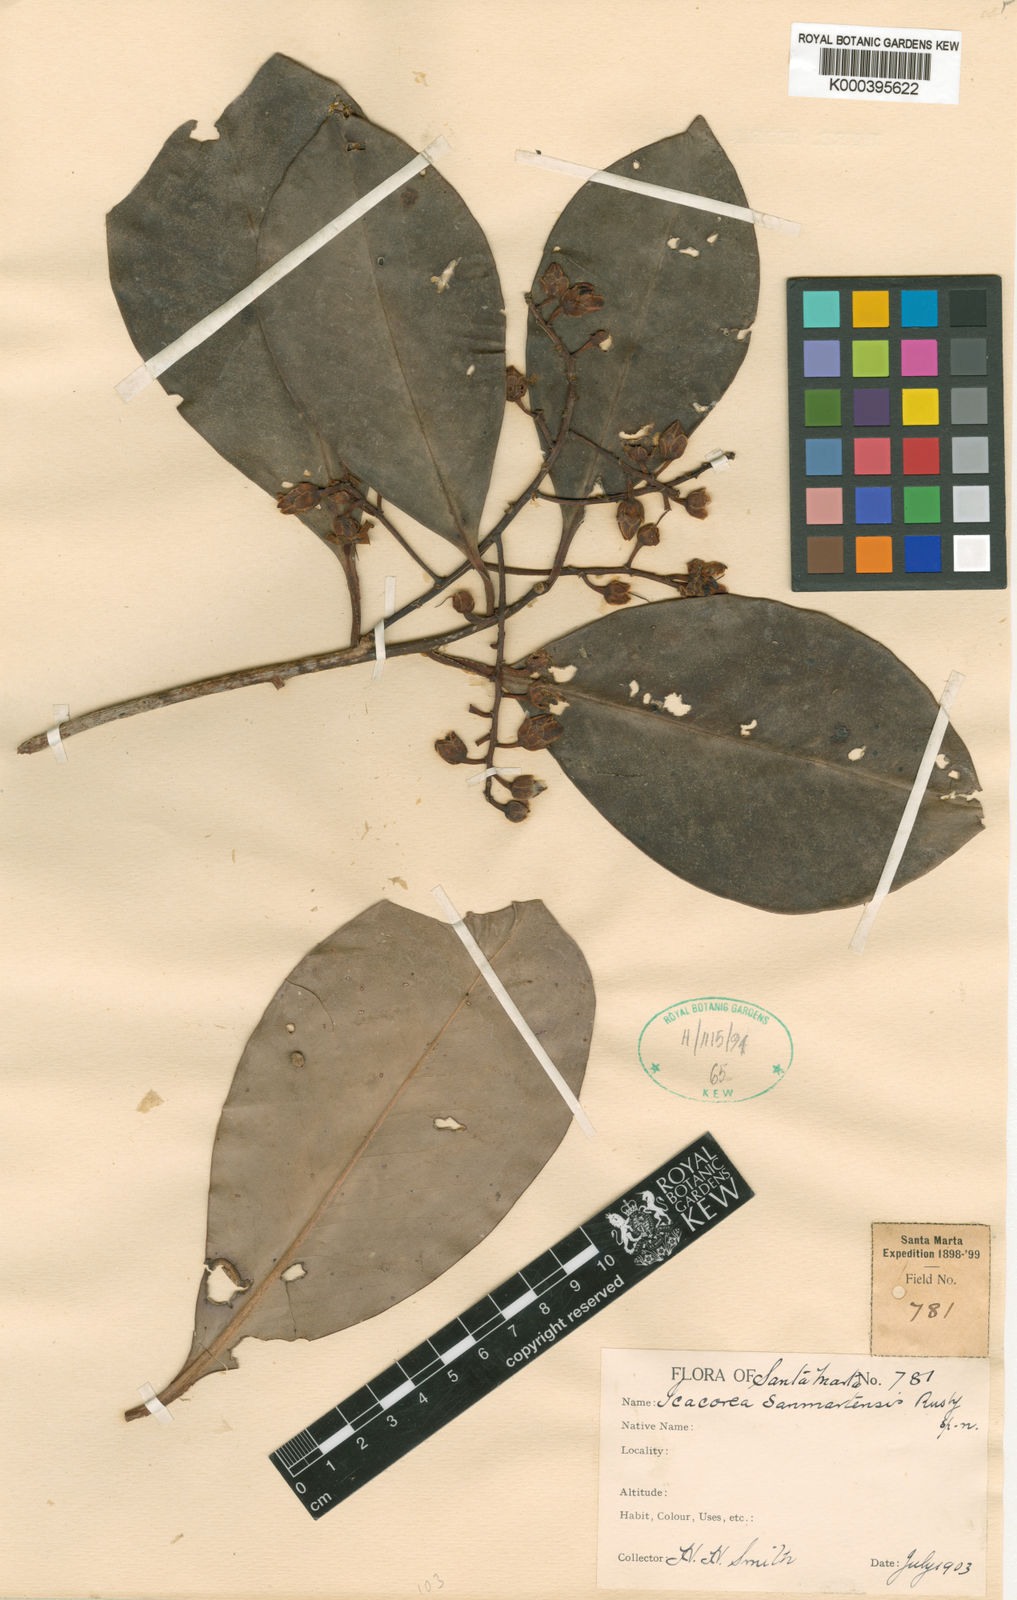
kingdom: Plantae
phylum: Tracheophyta
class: Magnoliopsida
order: Ericales
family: Primulaceae
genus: Ardisia
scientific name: Ardisia sanmartensis
